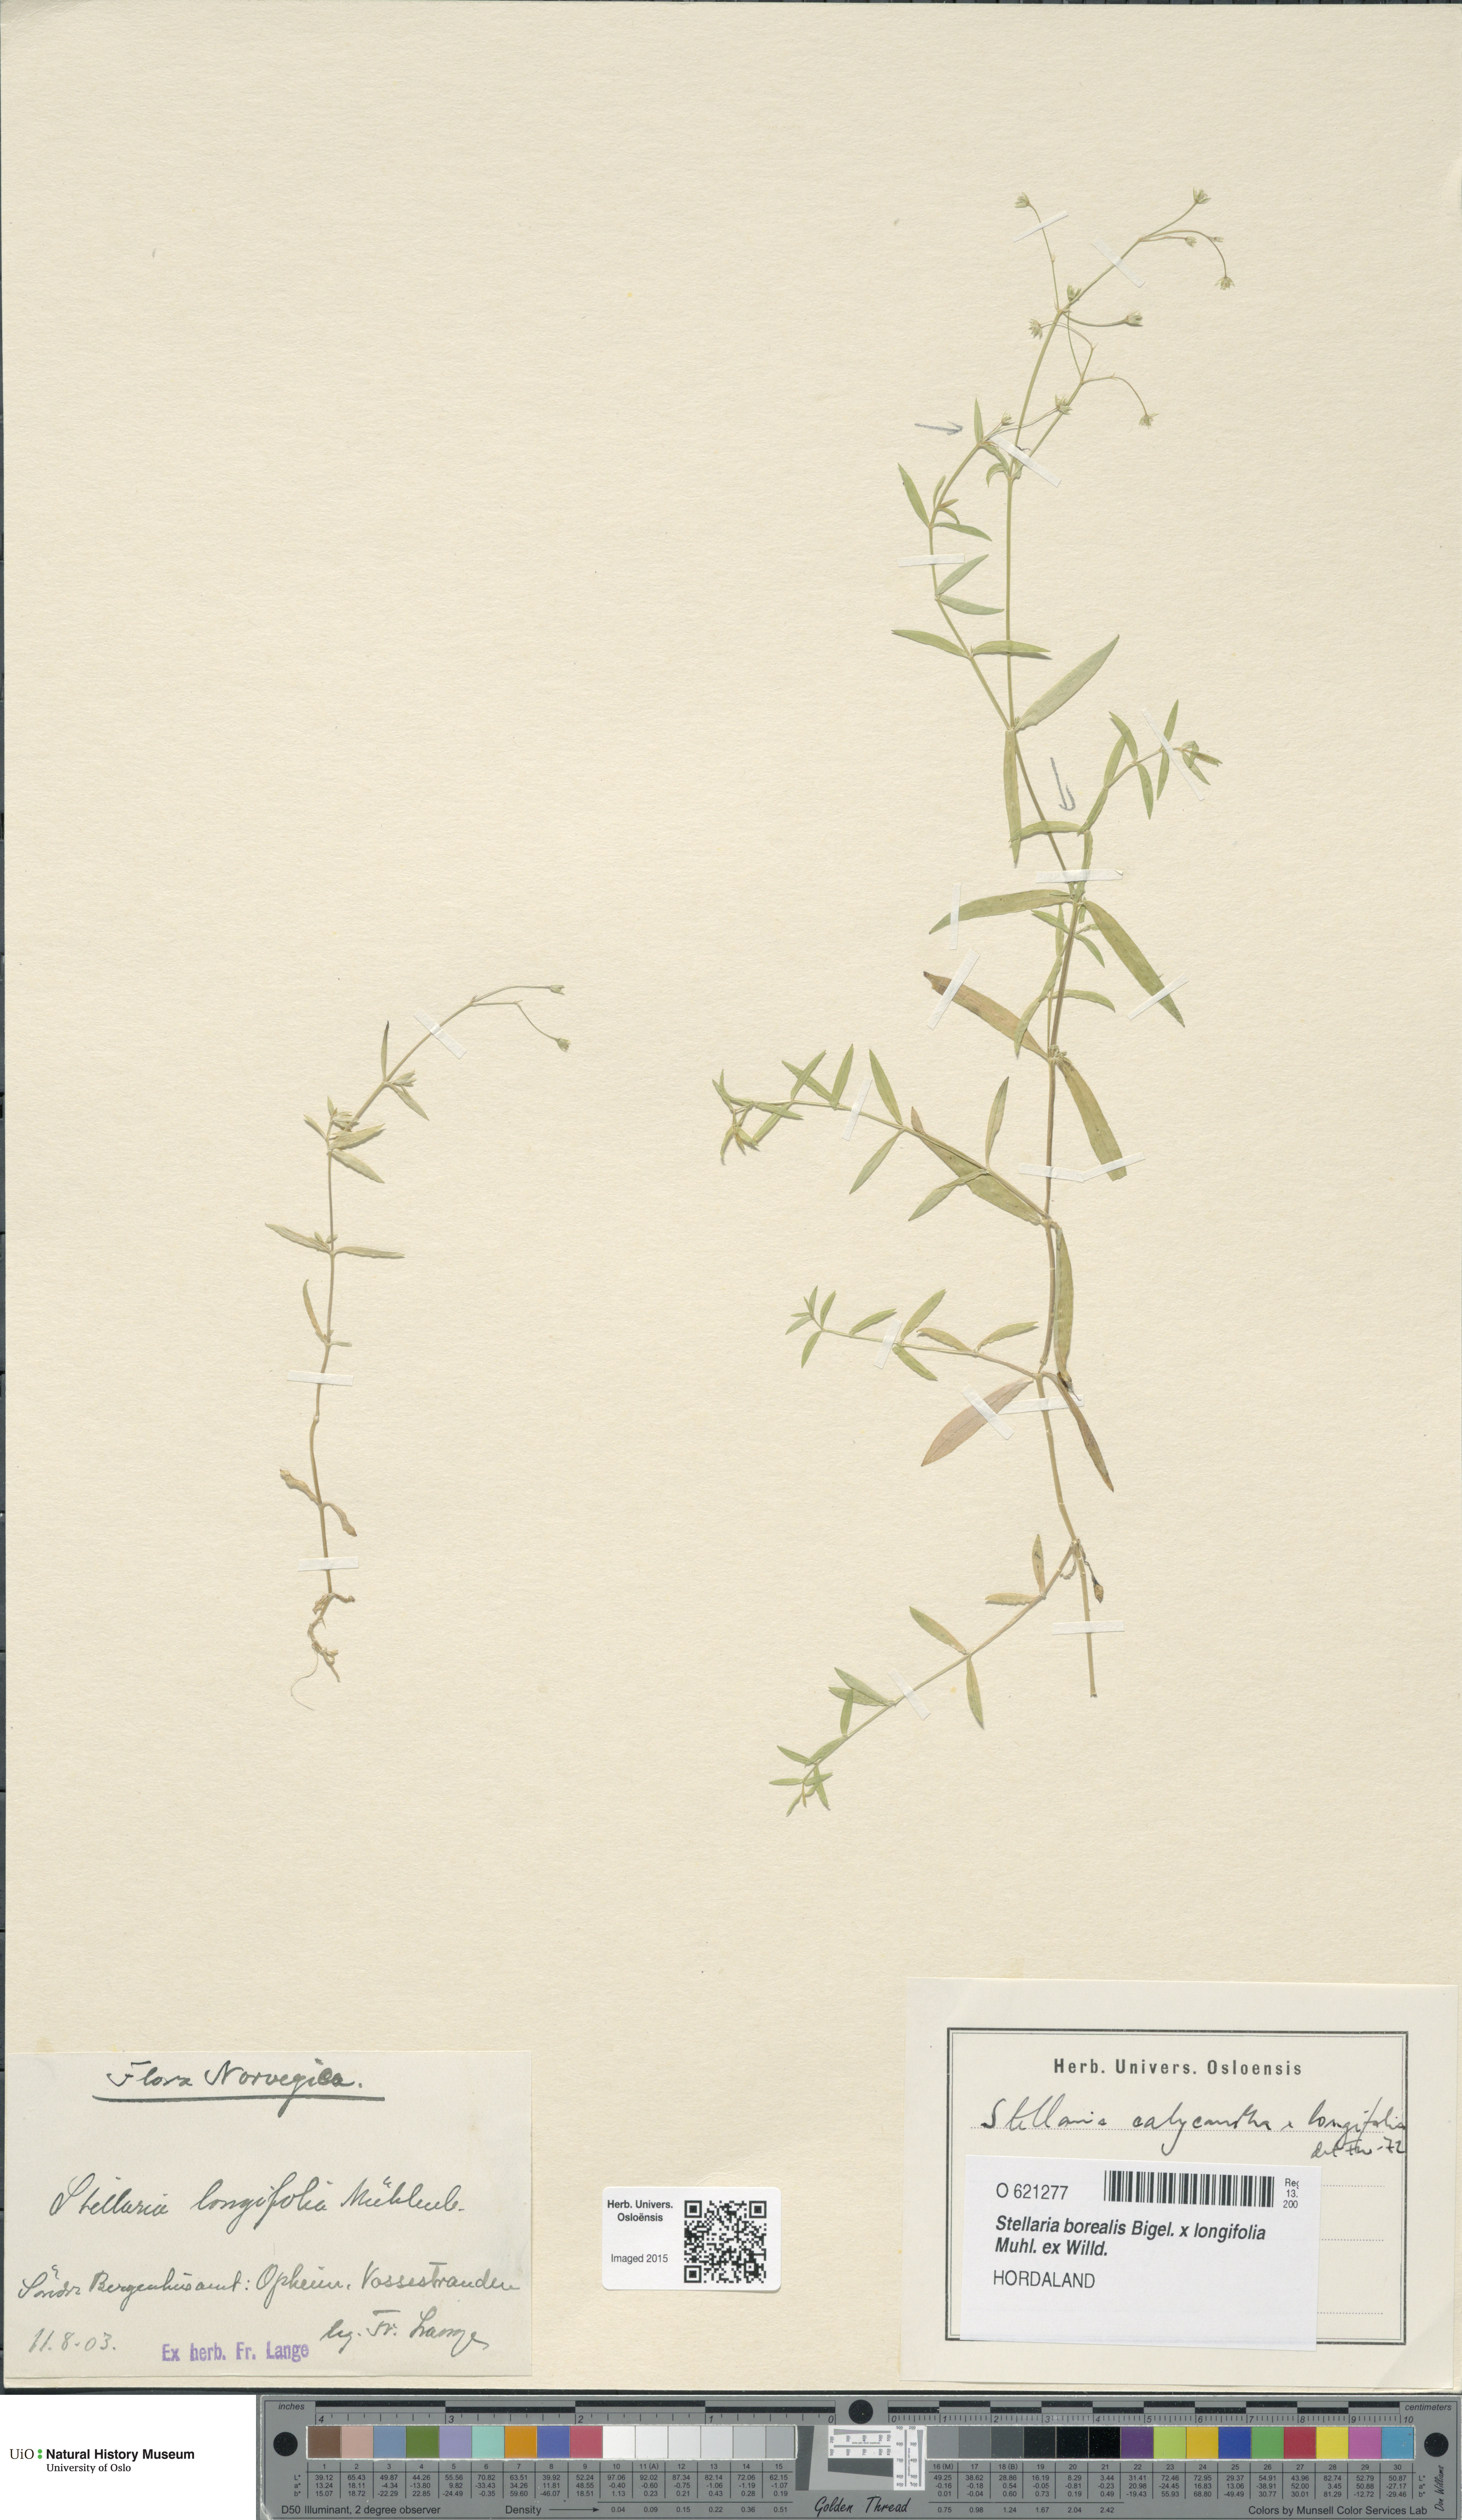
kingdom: Plantae
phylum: Tracheophyta
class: Magnoliopsida
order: Caryophyllales
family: Caryophyllaceae
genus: Stellaria
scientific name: Stellaria
